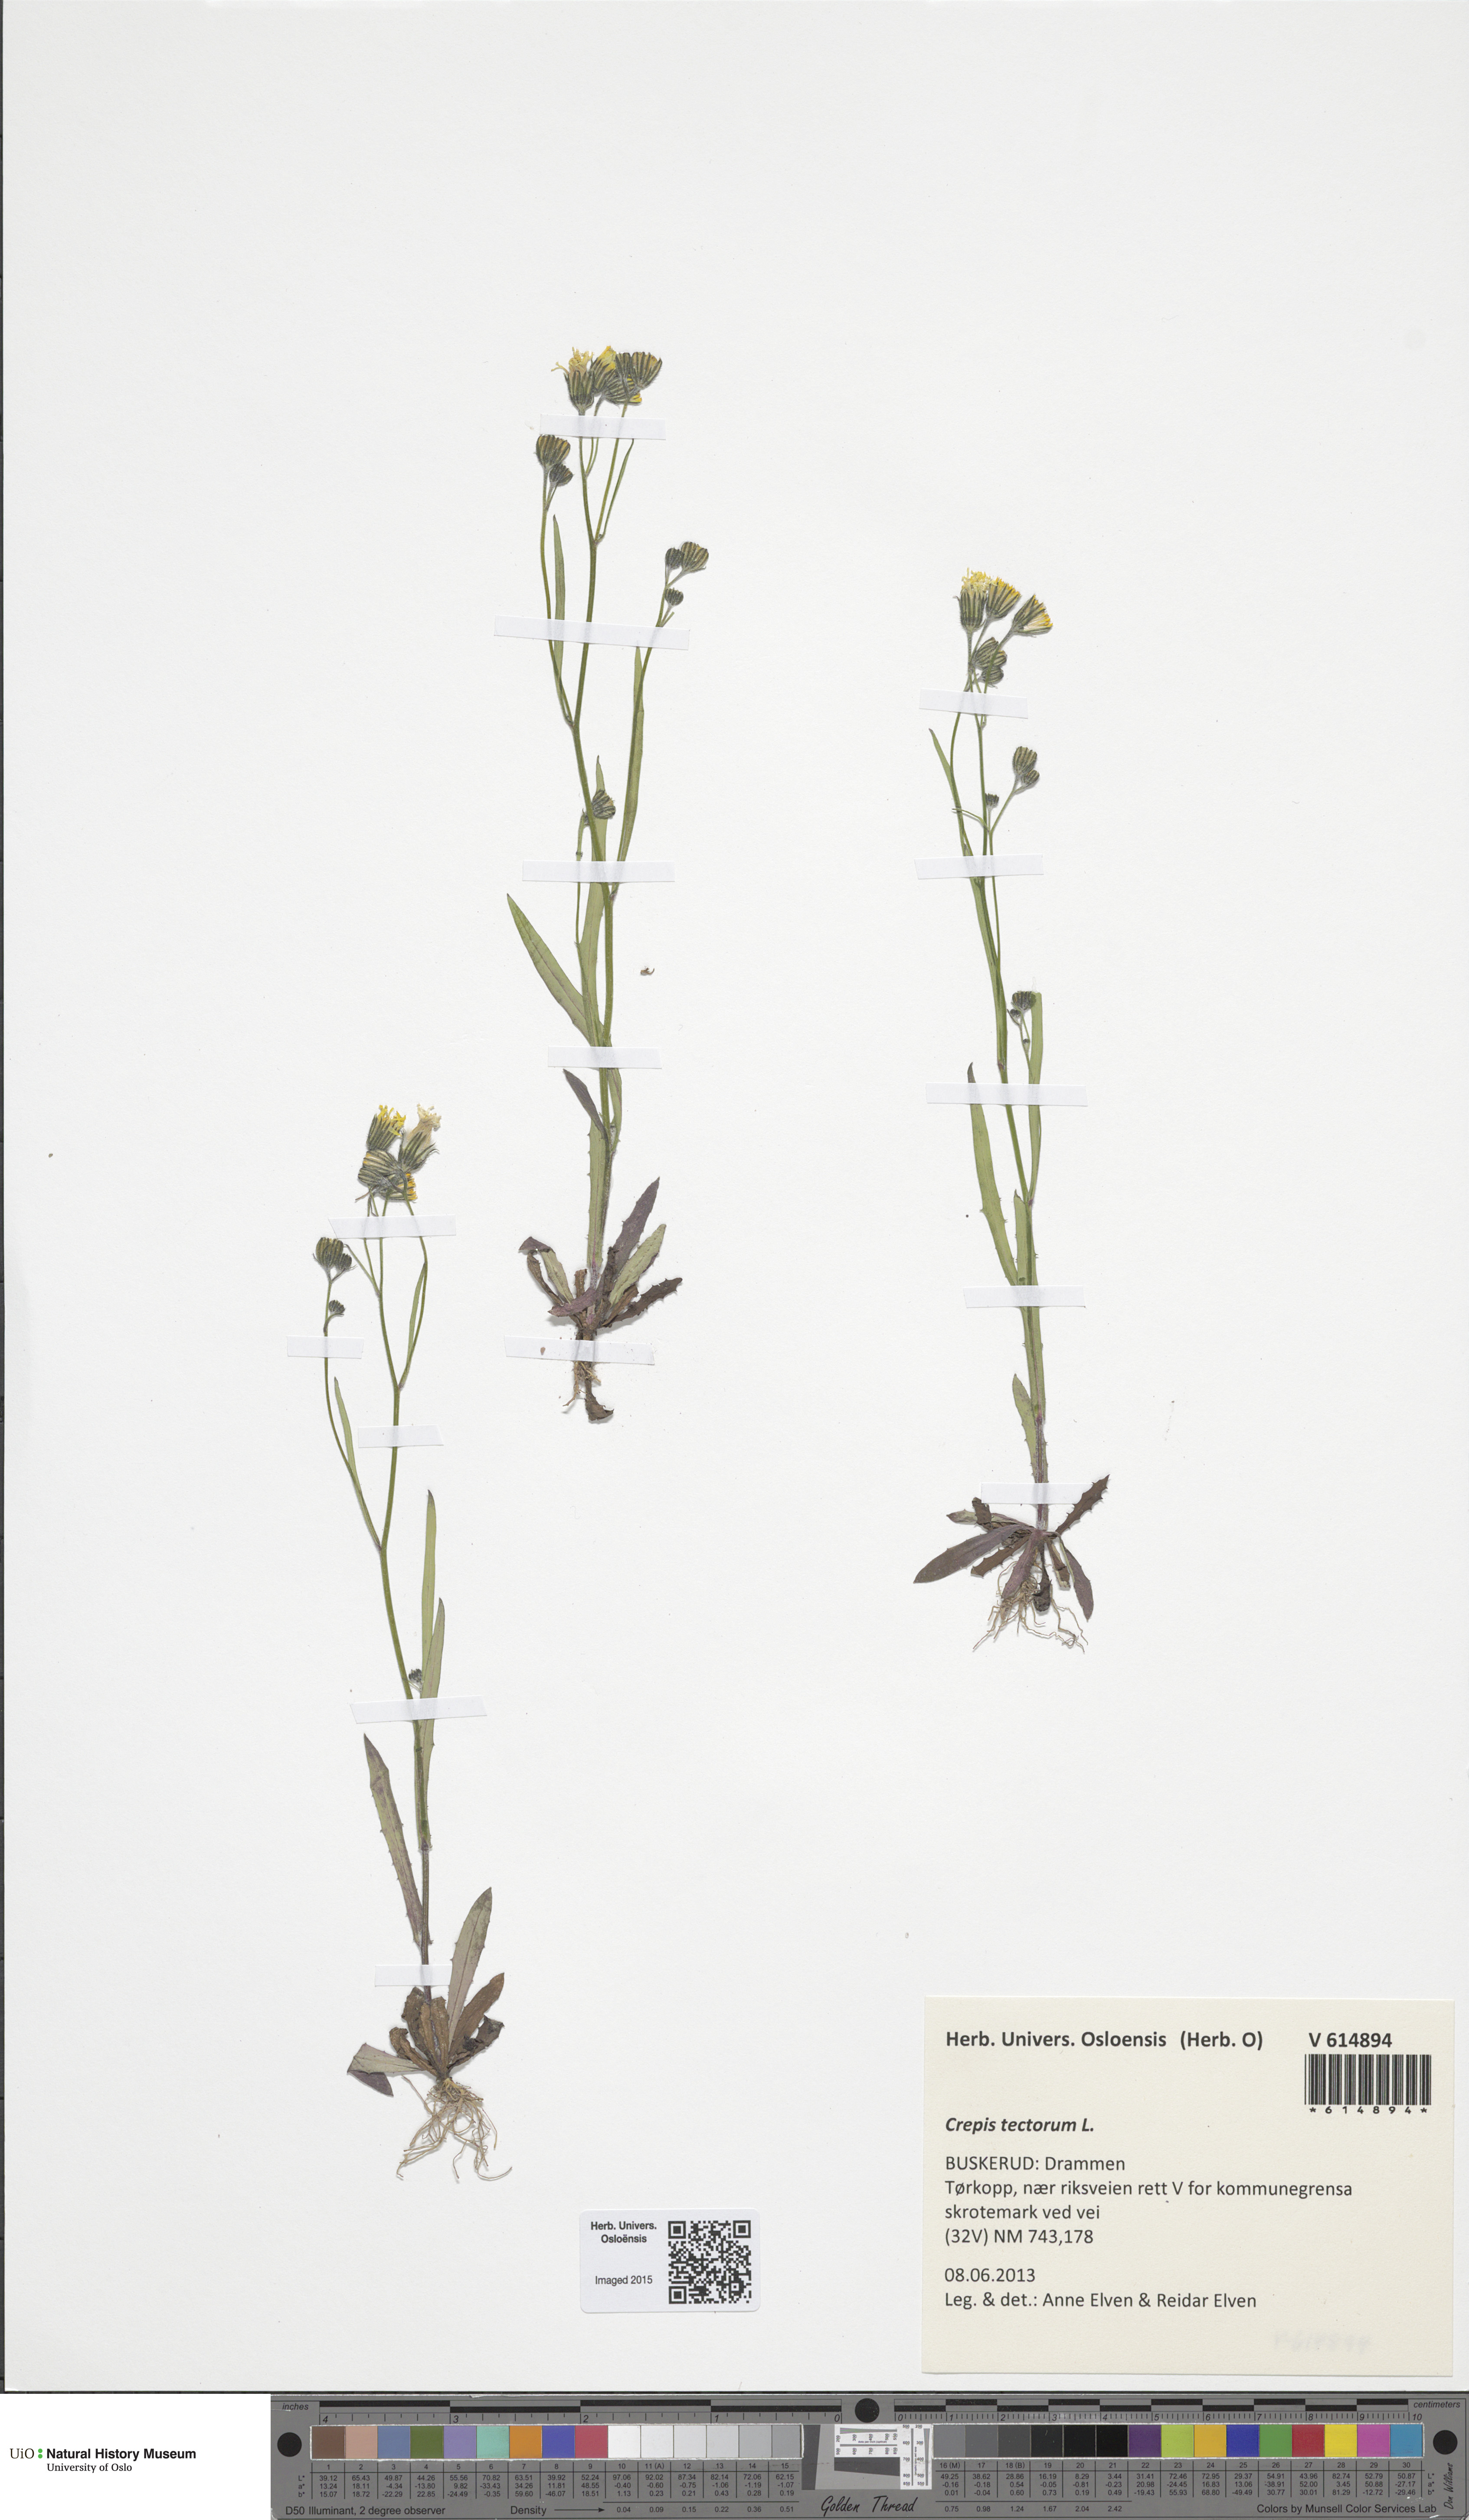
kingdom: Plantae
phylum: Tracheophyta
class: Magnoliopsida
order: Asterales
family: Asteraceae
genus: Crepis
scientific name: Crepis tectorum
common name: Narrow-leaved hawk's-beard
